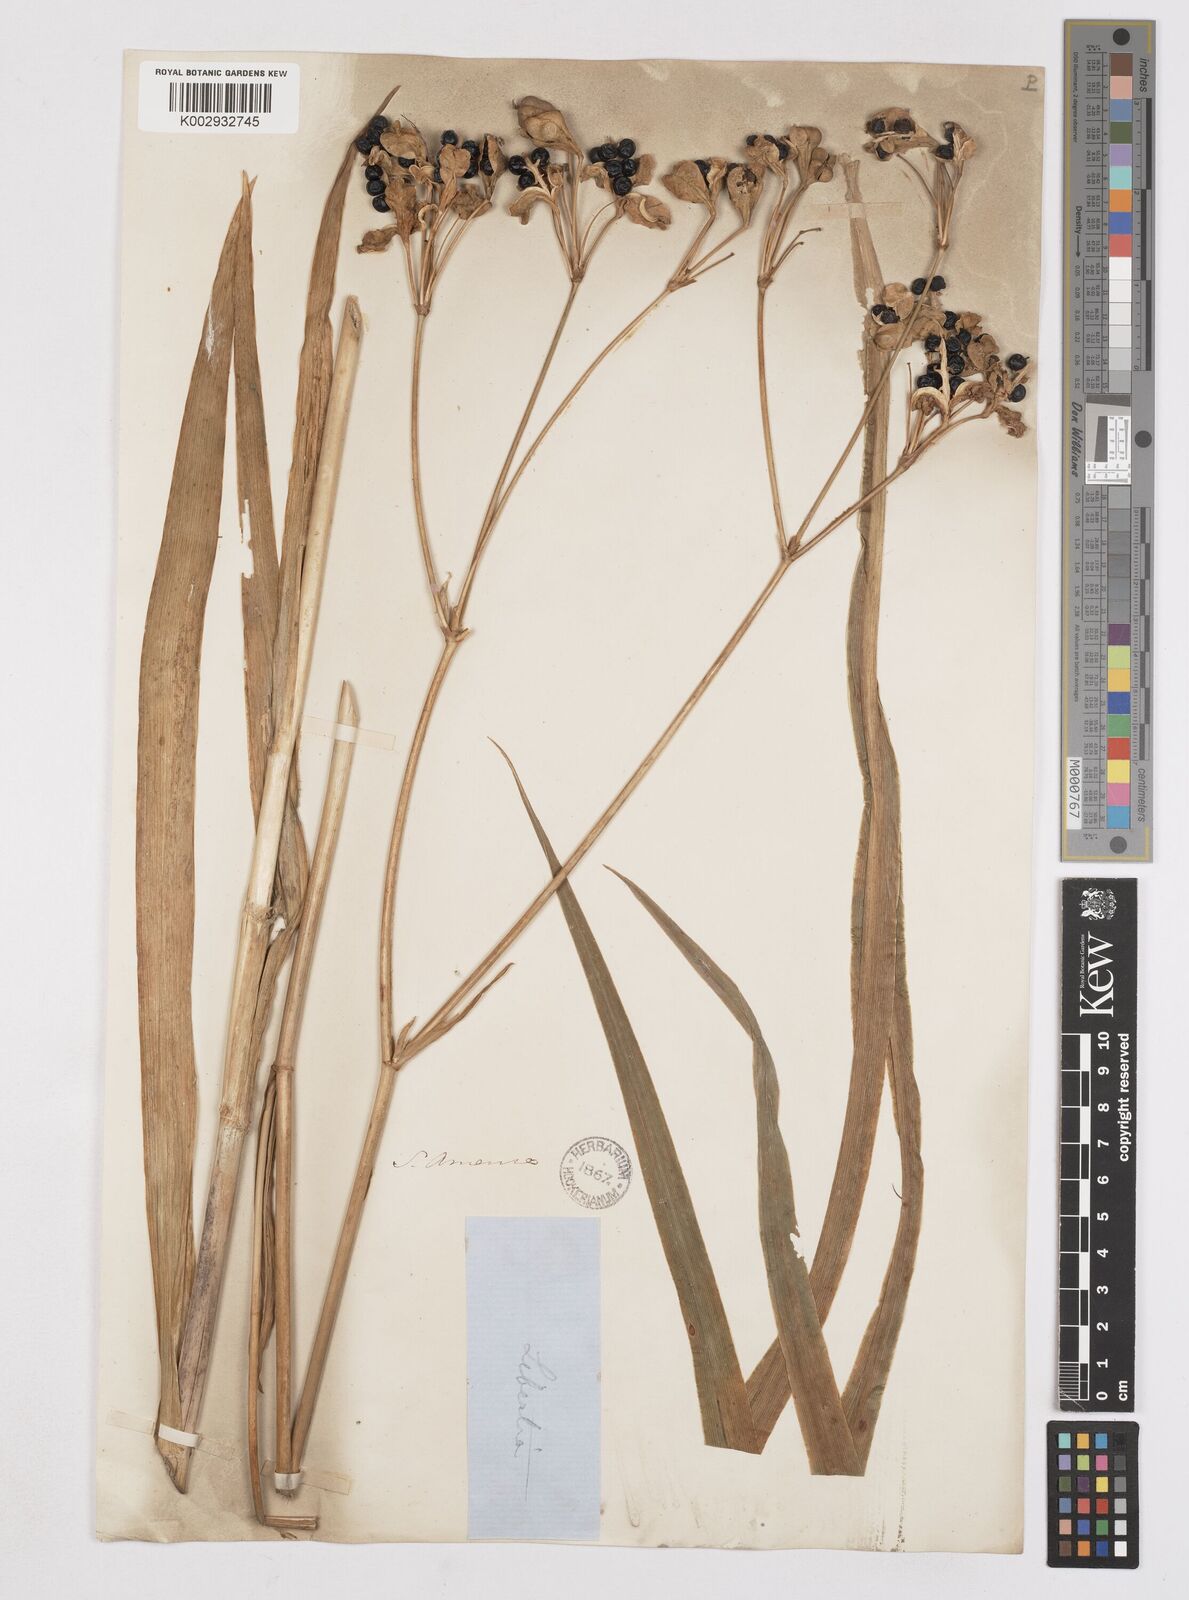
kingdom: Plantae
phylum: Tracheophyta
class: Liliopsida
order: Asparagales
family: Iridaceae
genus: Iris
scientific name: Iris
